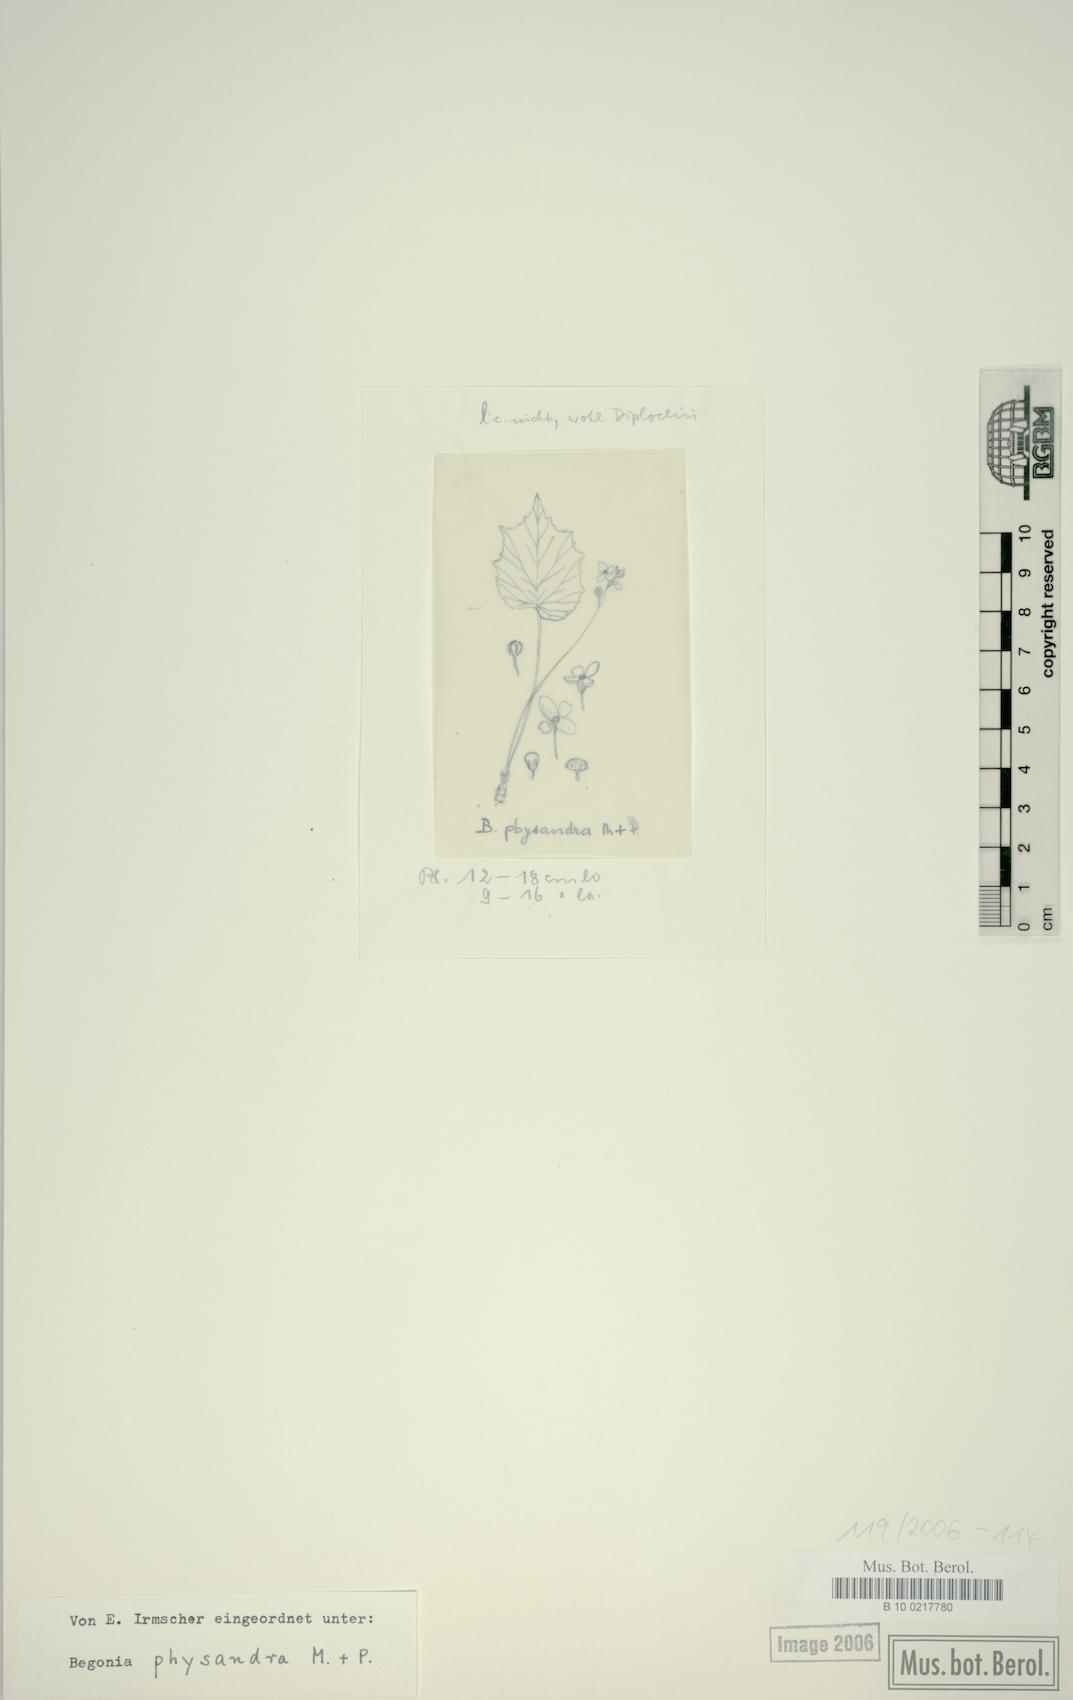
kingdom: Plantae
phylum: Tracheophyta
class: Magnoliopsida
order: Cucurbitales
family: Begoniaceae
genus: Begonia
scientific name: Begonia physandra
